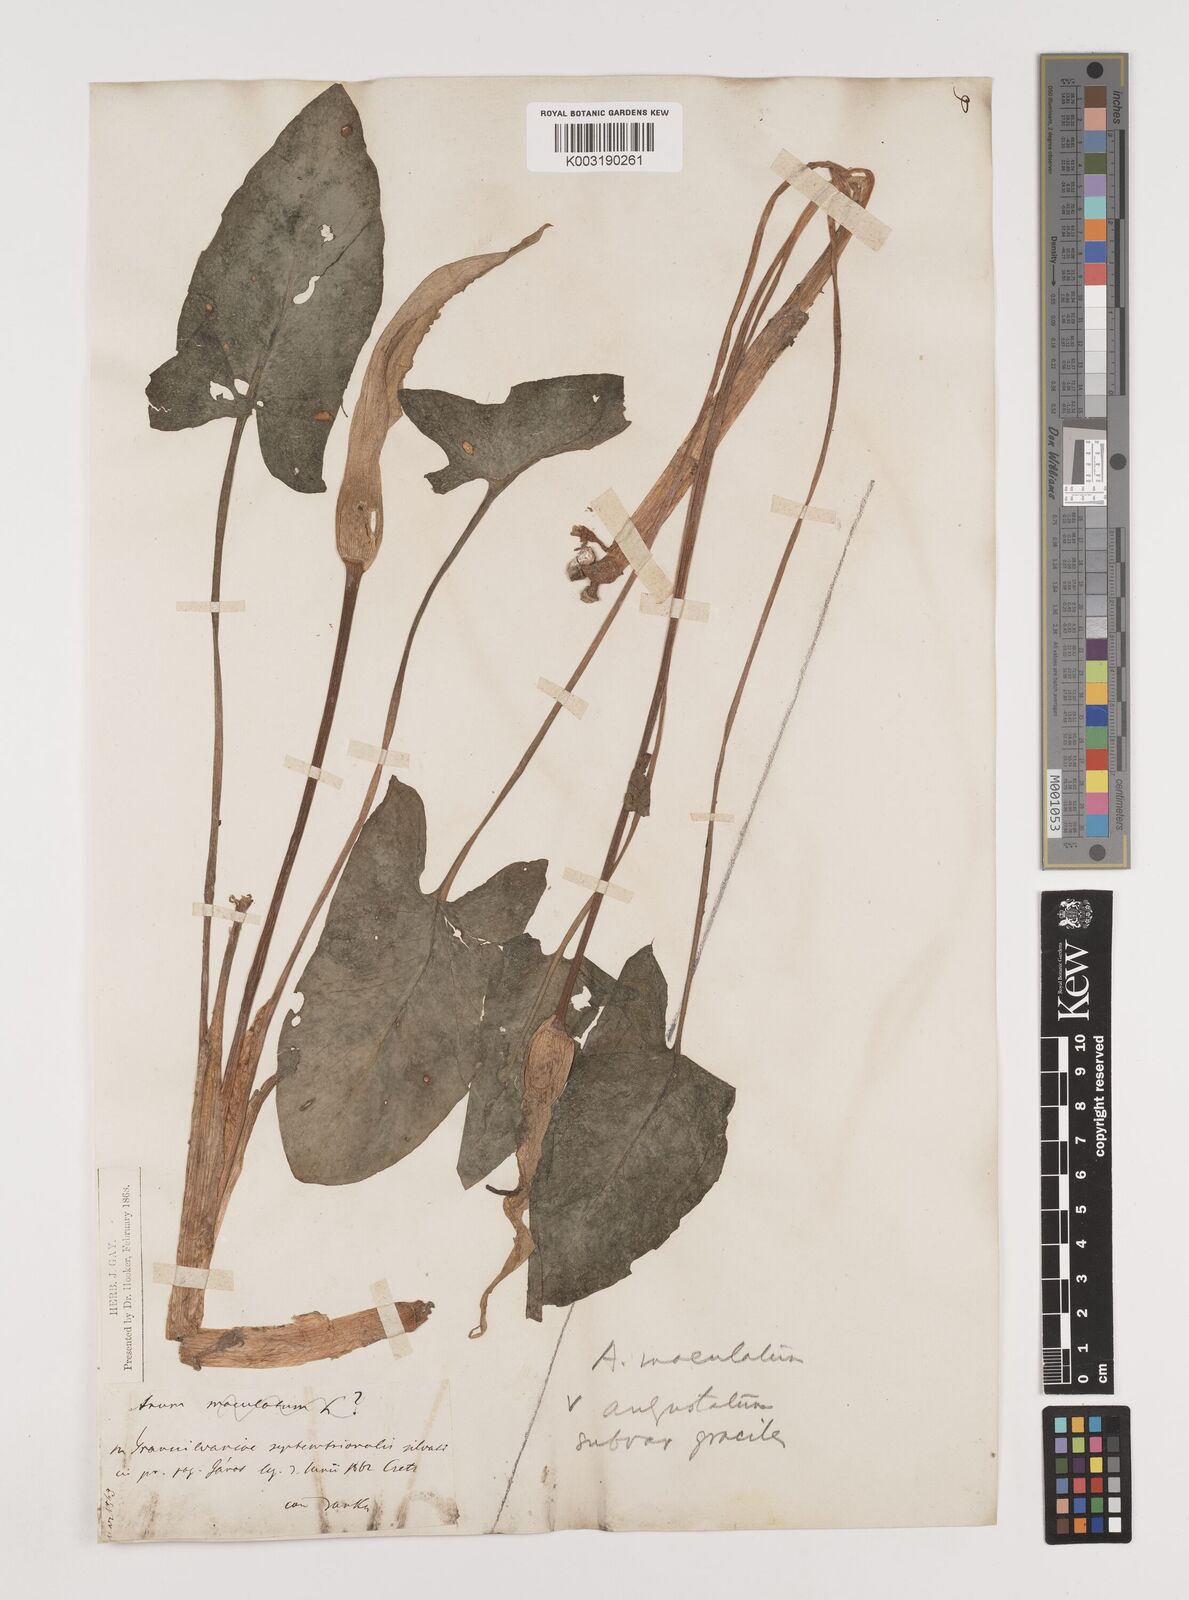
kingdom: Plantae
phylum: Tracheophyta
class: Liliopsida
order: Alismatales
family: Araceae
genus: Arum
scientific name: Arum cylindraceum
